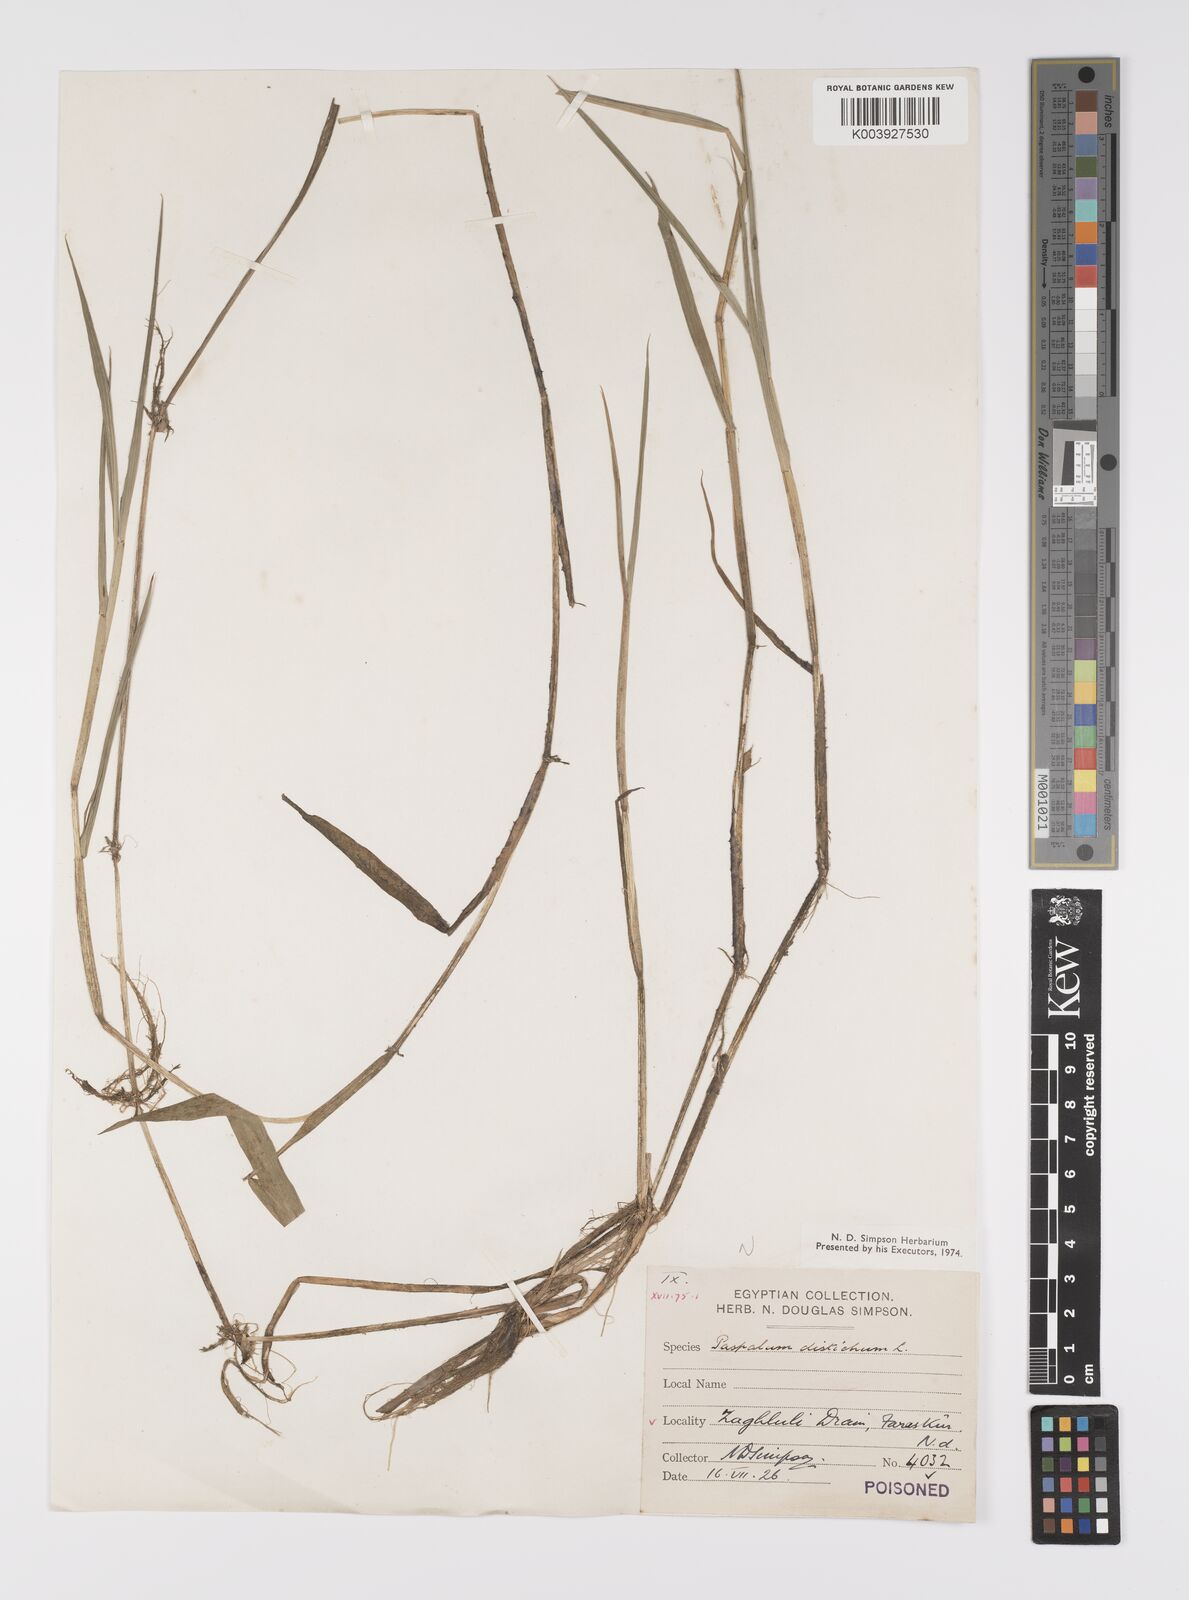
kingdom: Plantae
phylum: Tracheophyta
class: Liliopsida
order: Poales
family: Poaceae
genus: Paspalum
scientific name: Paspalum distichum
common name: Knotgrass
